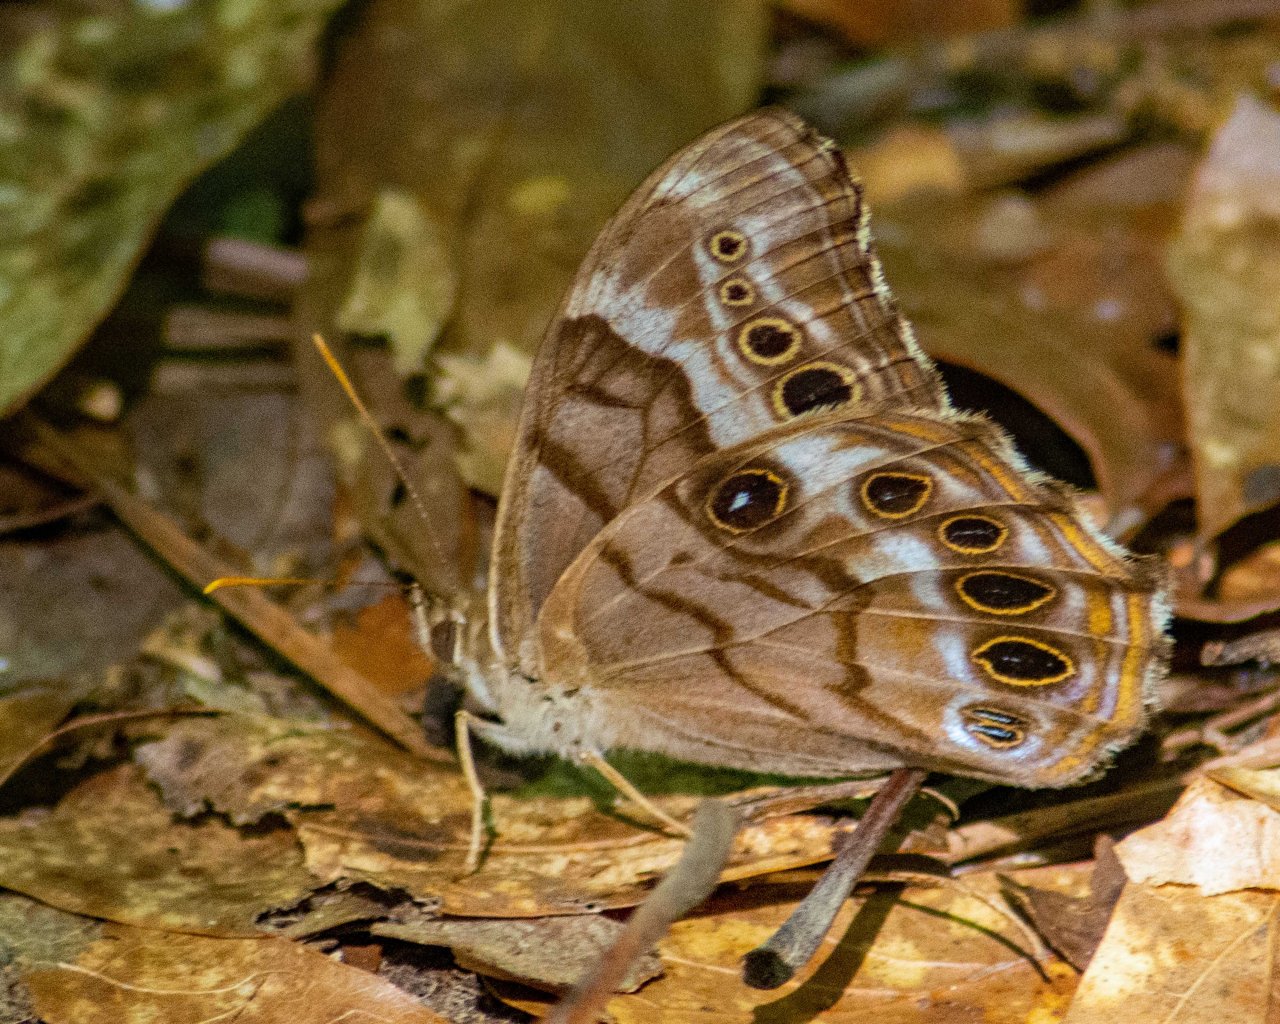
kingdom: Animalia
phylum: Arthropoda
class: Insecta
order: Lepidoptera
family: Nymphalidae
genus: Enodia
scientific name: Enodia portlandia
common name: Southern Pearly Eye
